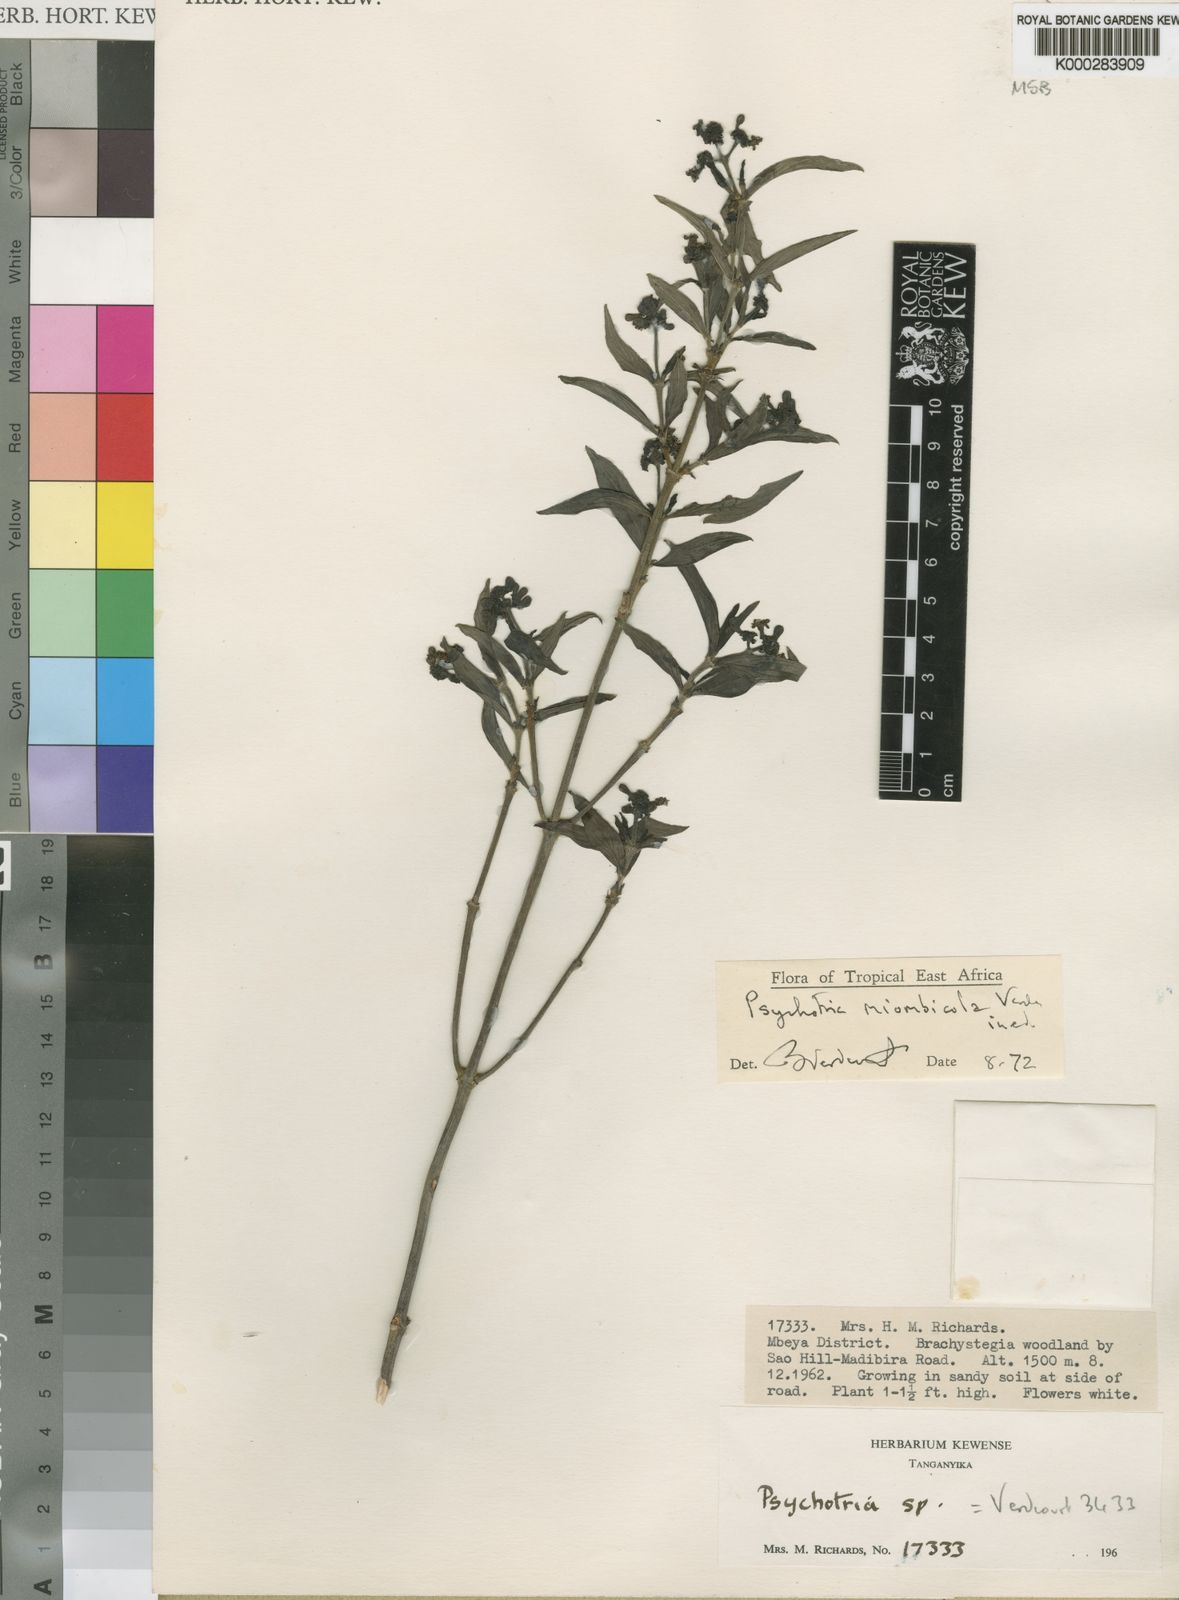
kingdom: Plantae
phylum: Tracheophyta
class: Magnoliopsida
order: Gentianales
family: Rubiaceae
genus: Psychotria
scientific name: Psychotria miombicola
